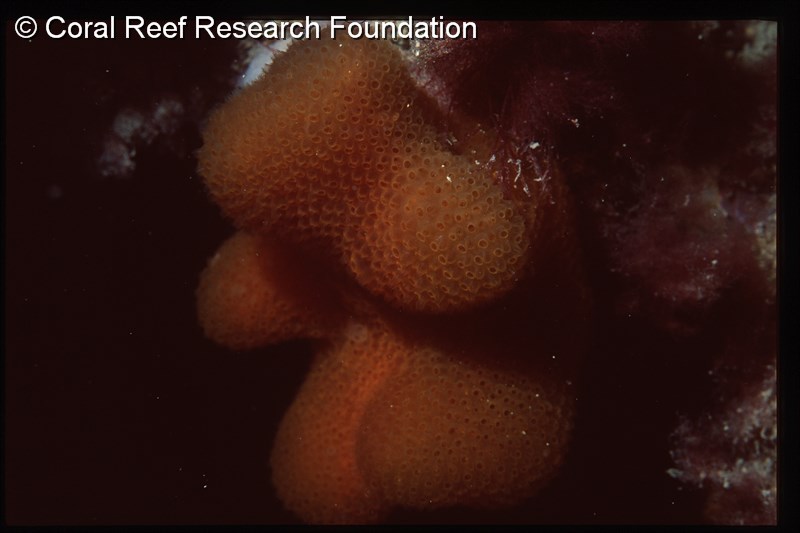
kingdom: Animalia
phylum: Chordata
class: Ascidiacea
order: Aplousobranchia
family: Pseudodistomidae
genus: Pseudodistoma
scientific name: Pseudodistoma
